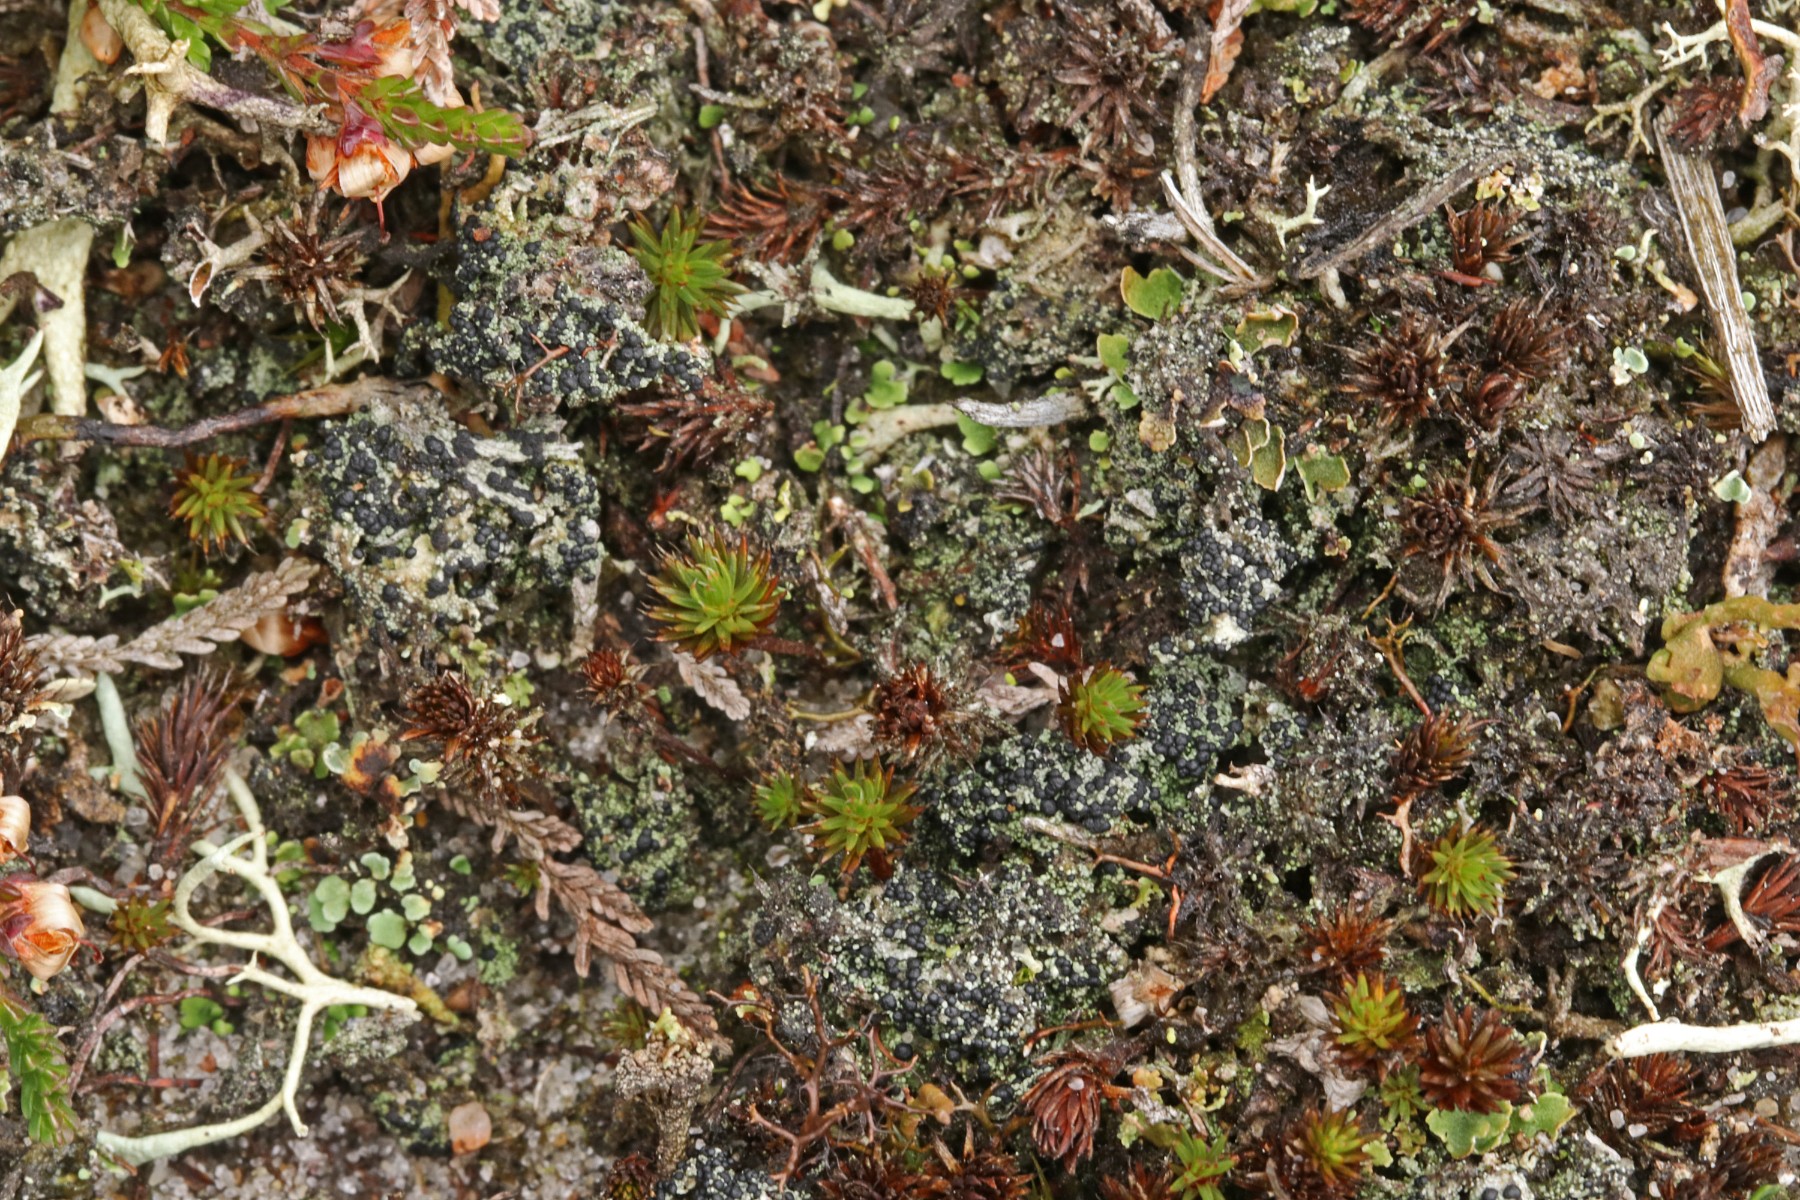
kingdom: Fungi
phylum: Ascomycota
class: Lecanoromycetes
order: Lecanorales
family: Byssolomataceae
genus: Micarea
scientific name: Micarea lignaria
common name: tørve-knaplav
